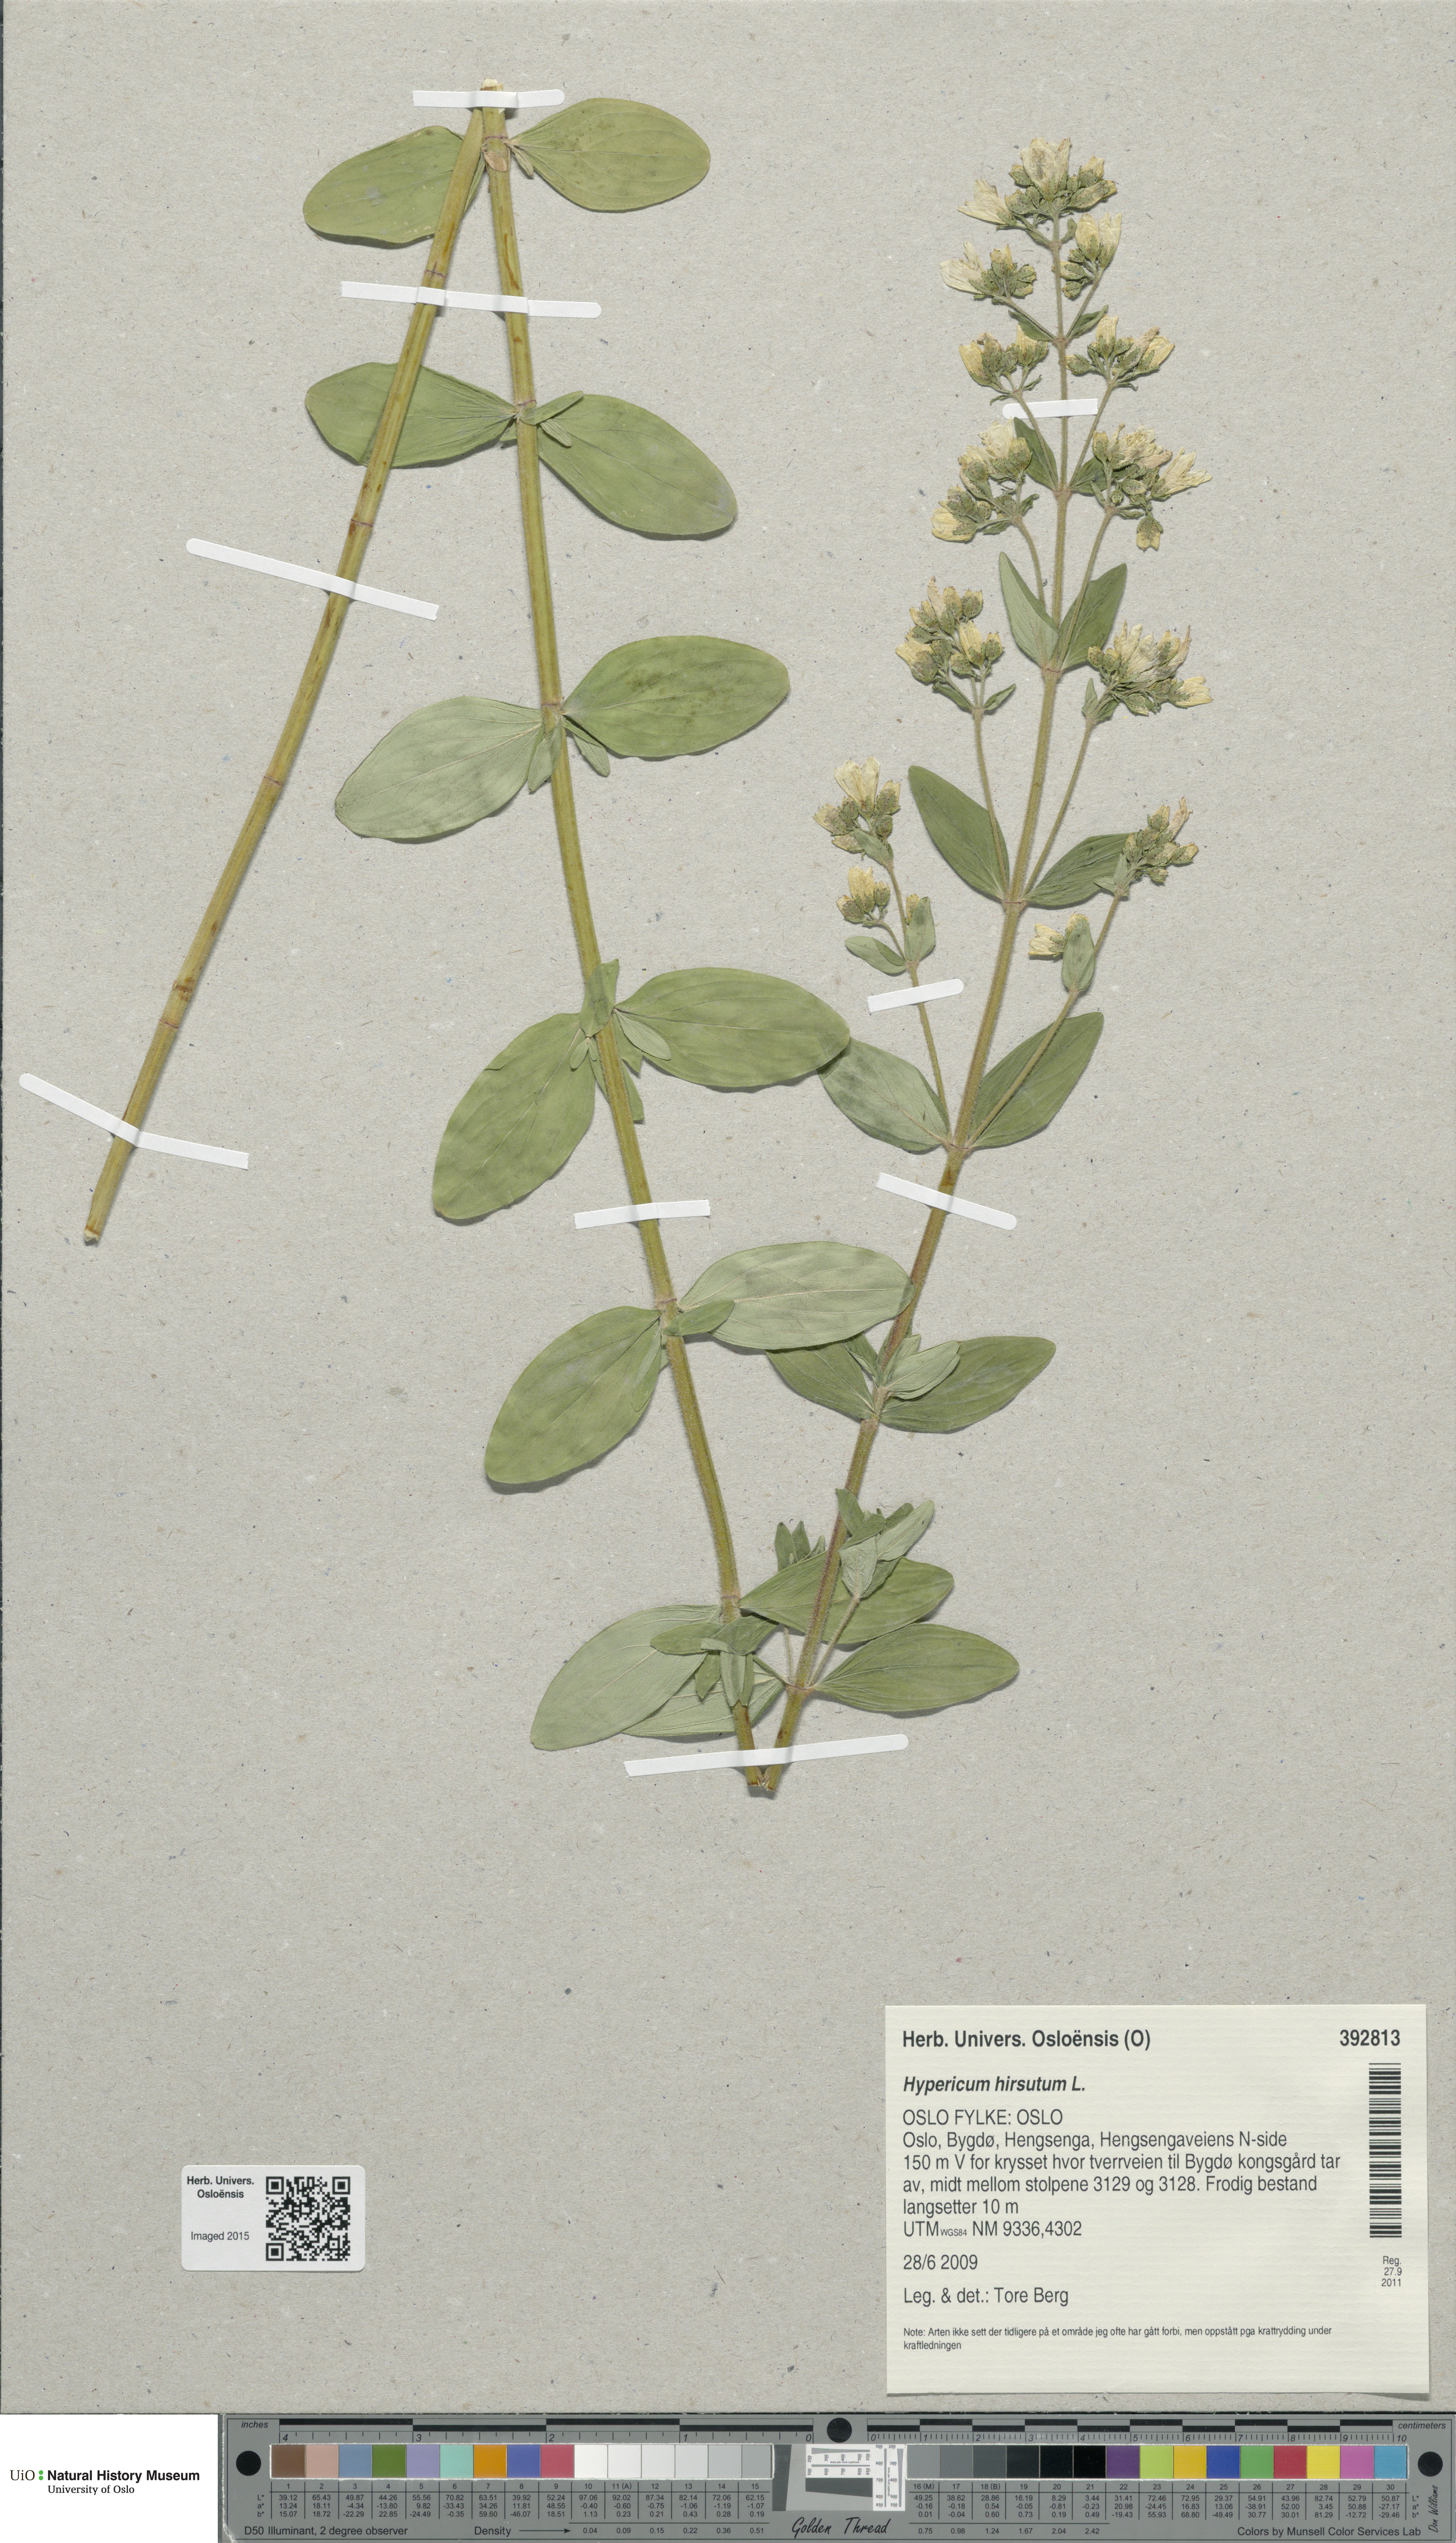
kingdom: Plantae
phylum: Tracheophyta
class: Magnoliopsida
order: Malpighiales
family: Hypericaceae
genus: Hypericum
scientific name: Hypericum hirsutum
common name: Hairy st. john's-wort
